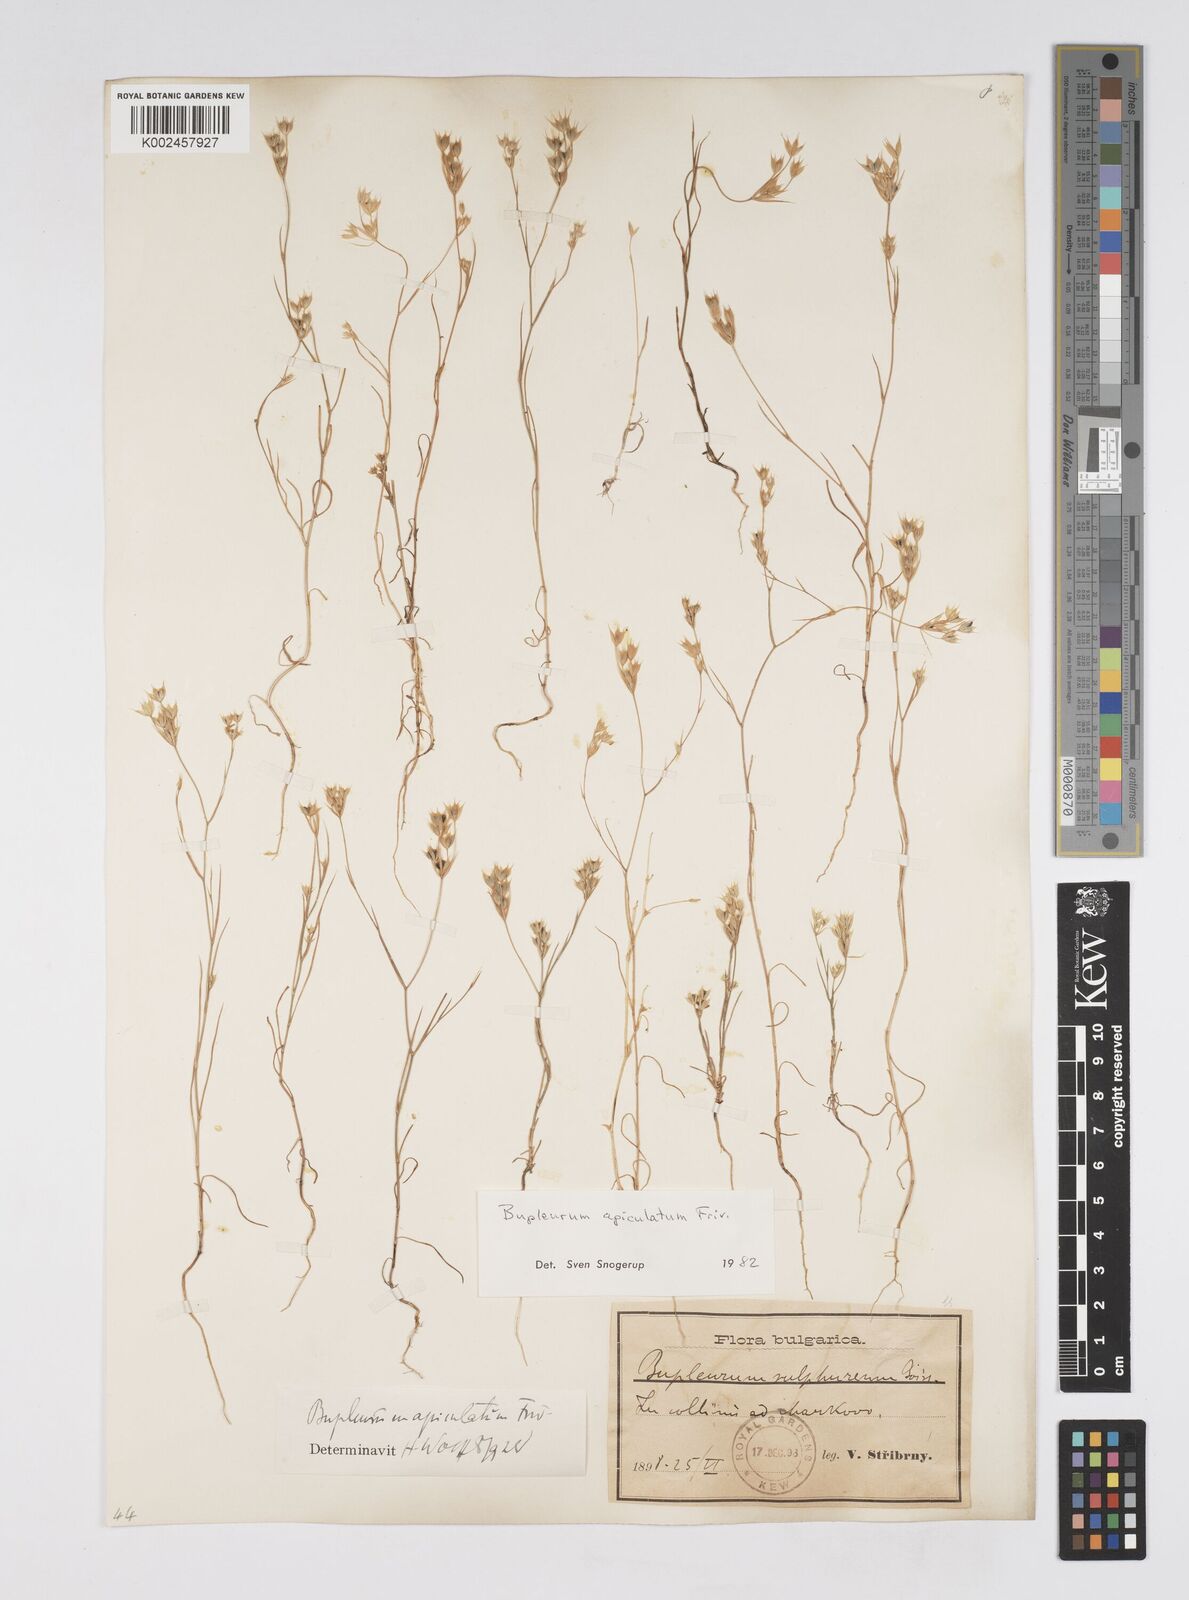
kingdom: Plantae
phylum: Tracheophyta
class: Magnoliopsida
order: Apiales
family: Apiaceae
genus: Bupleurum
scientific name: Bupleurum apiculatum
